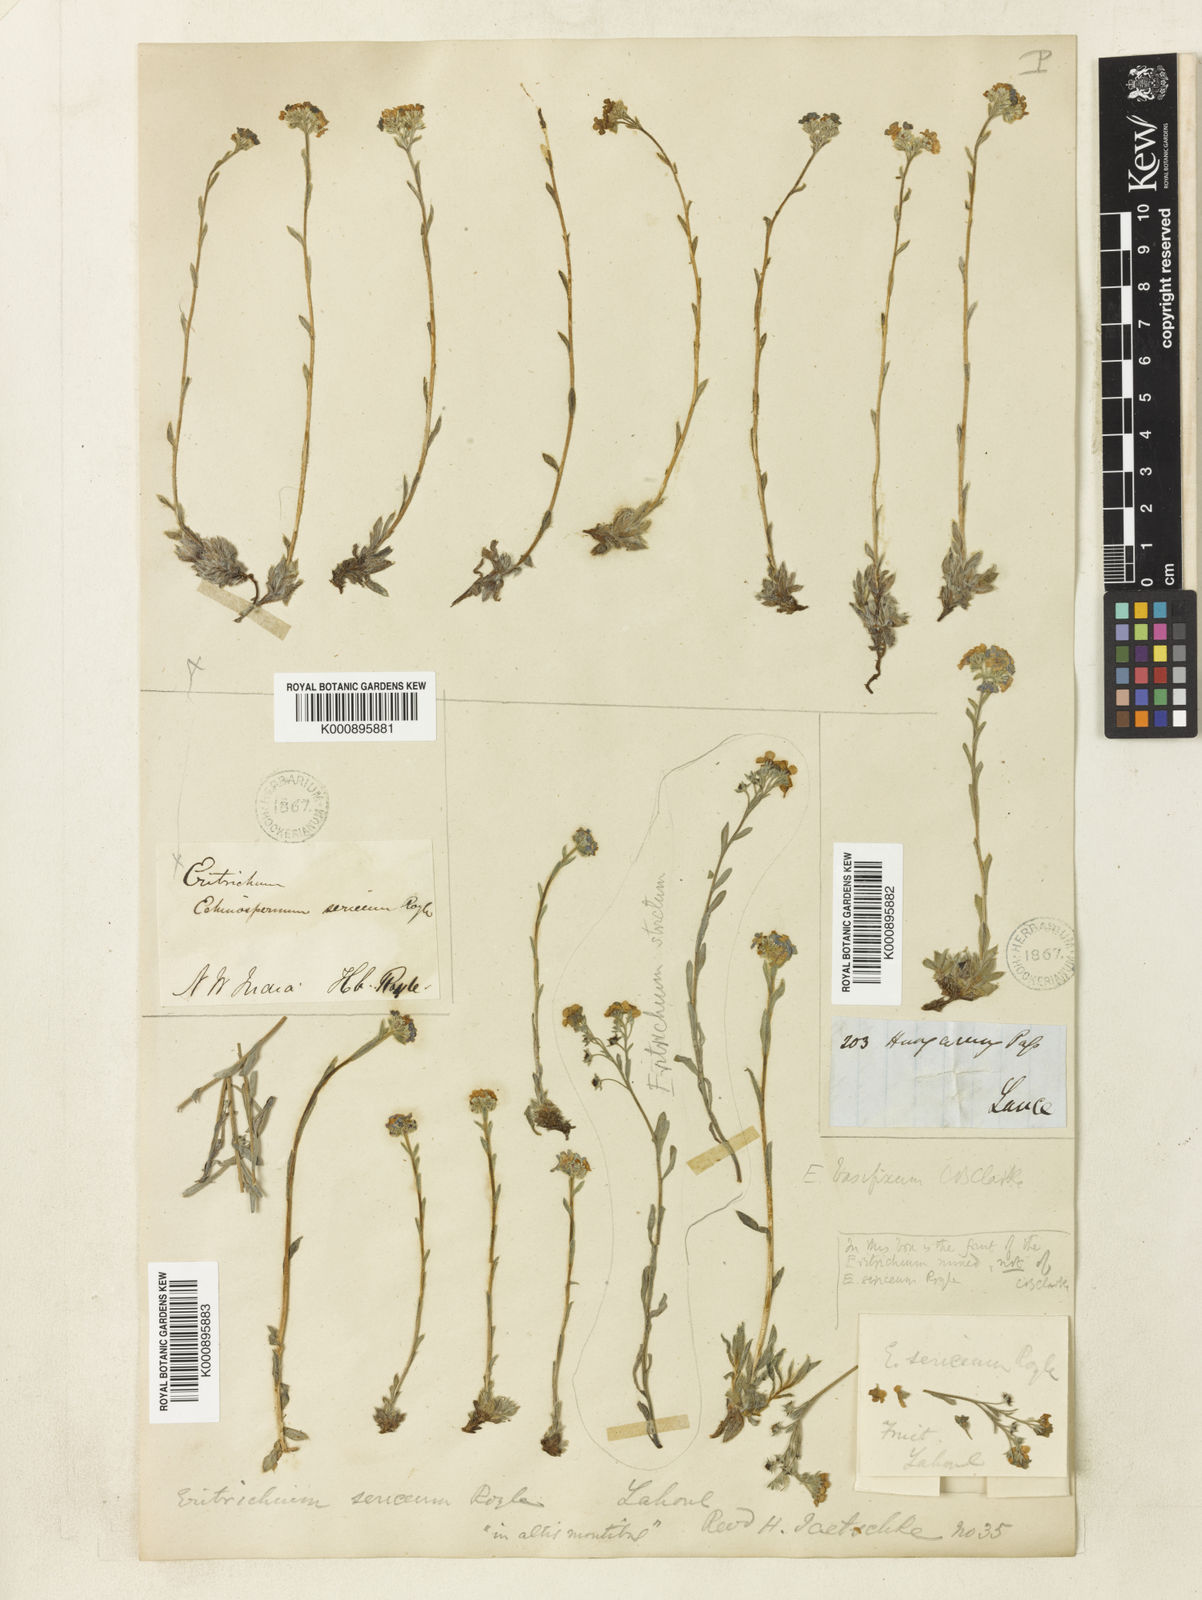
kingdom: Plantae
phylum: Tracheophyta
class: Magnoliopsida
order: Boraginales
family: Boraginaceae
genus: Eritrichium
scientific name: Eritrichium nanum
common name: King-of-the-alps
